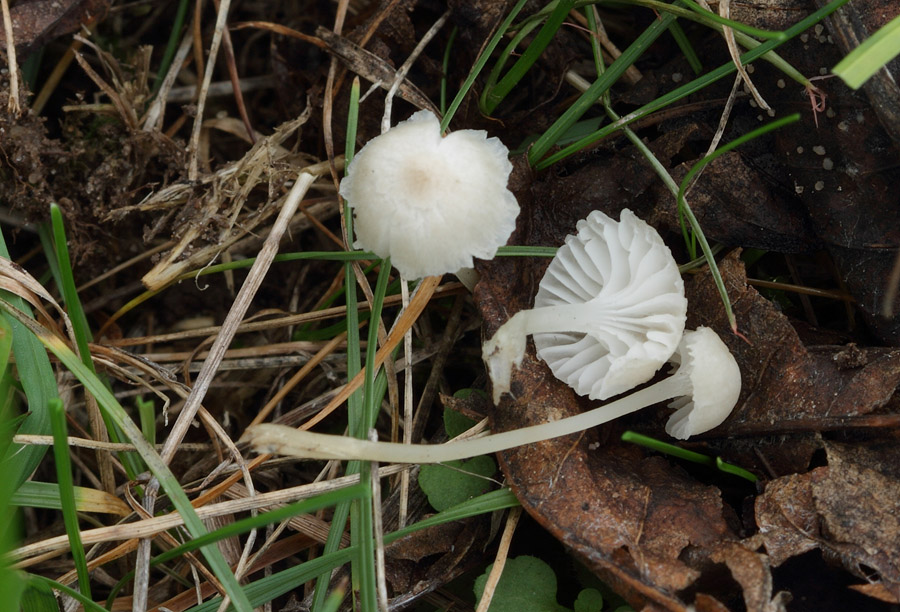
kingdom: Fungi
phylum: Basidiomycota
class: Agaricomycetes
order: Agaricales
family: Mycenaceae
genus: Hemimycena
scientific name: Hemimycena mairei
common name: voks-huesvamp
